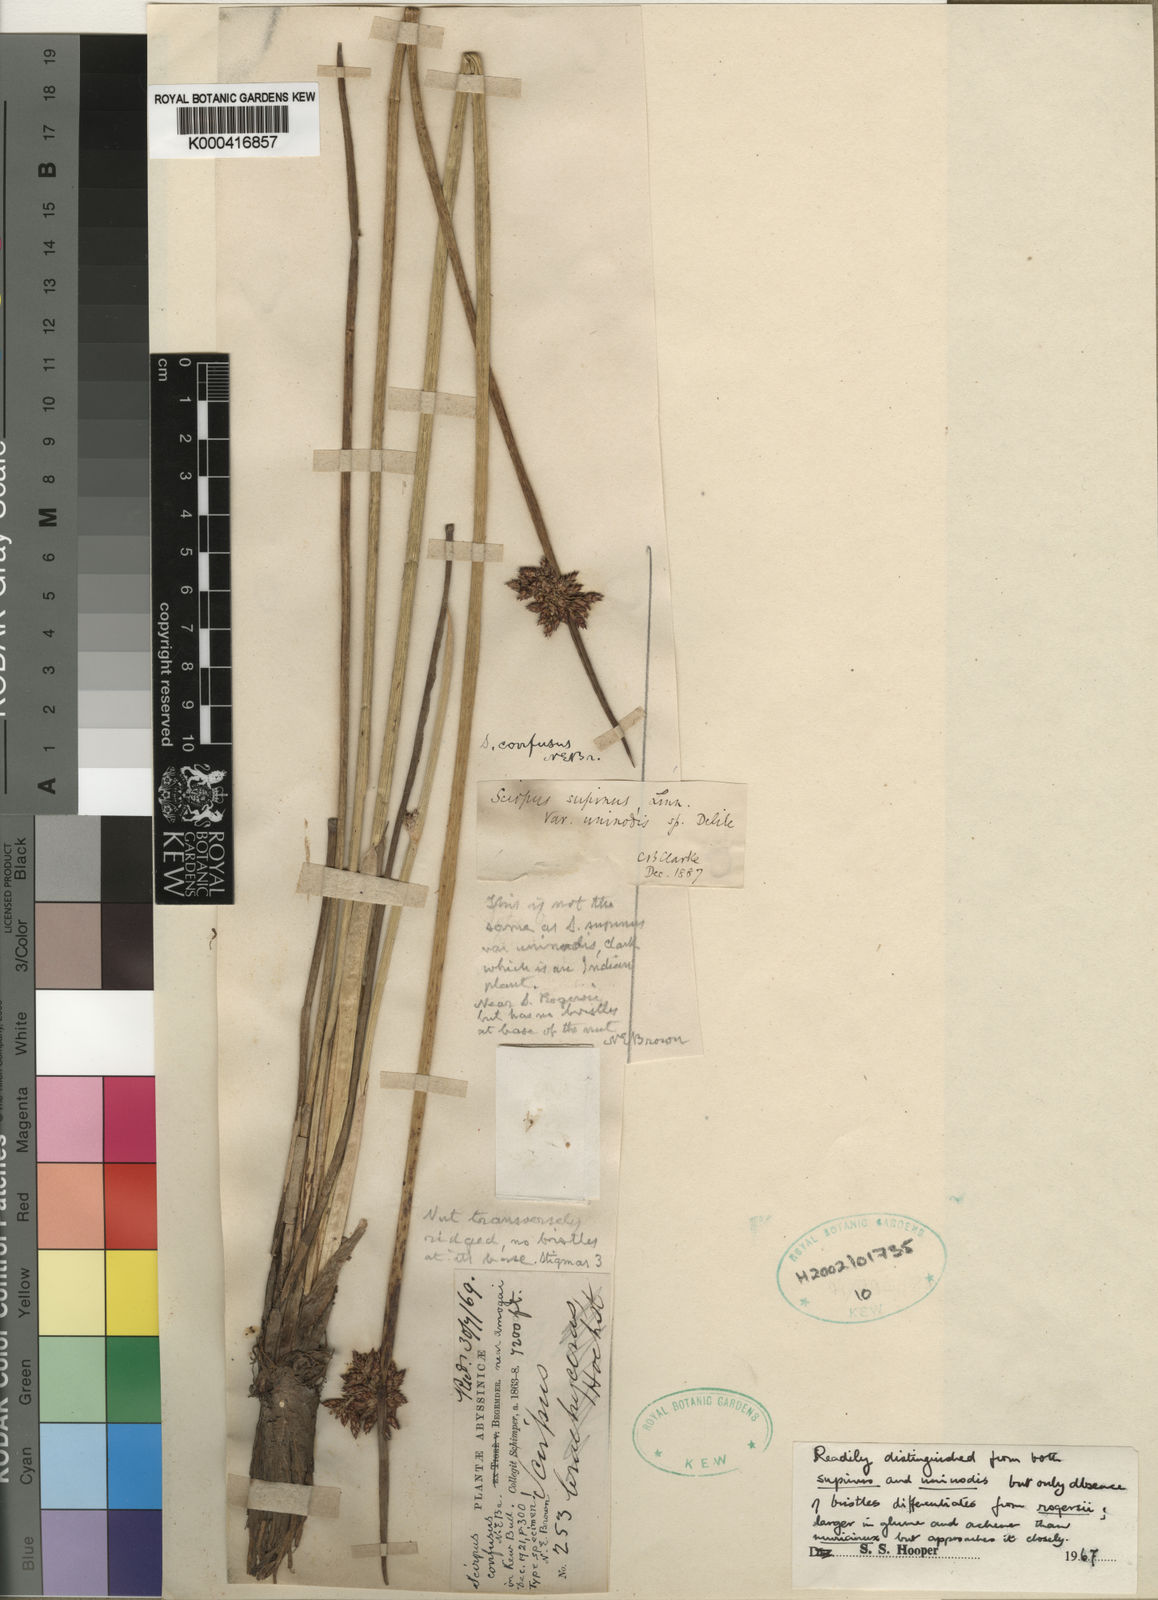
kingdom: Plantae
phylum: Tracheophyta
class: Liliopsida
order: Poales
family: Cyperaceae
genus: Schoenoplectiella
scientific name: Schoenoplectiella confusa
